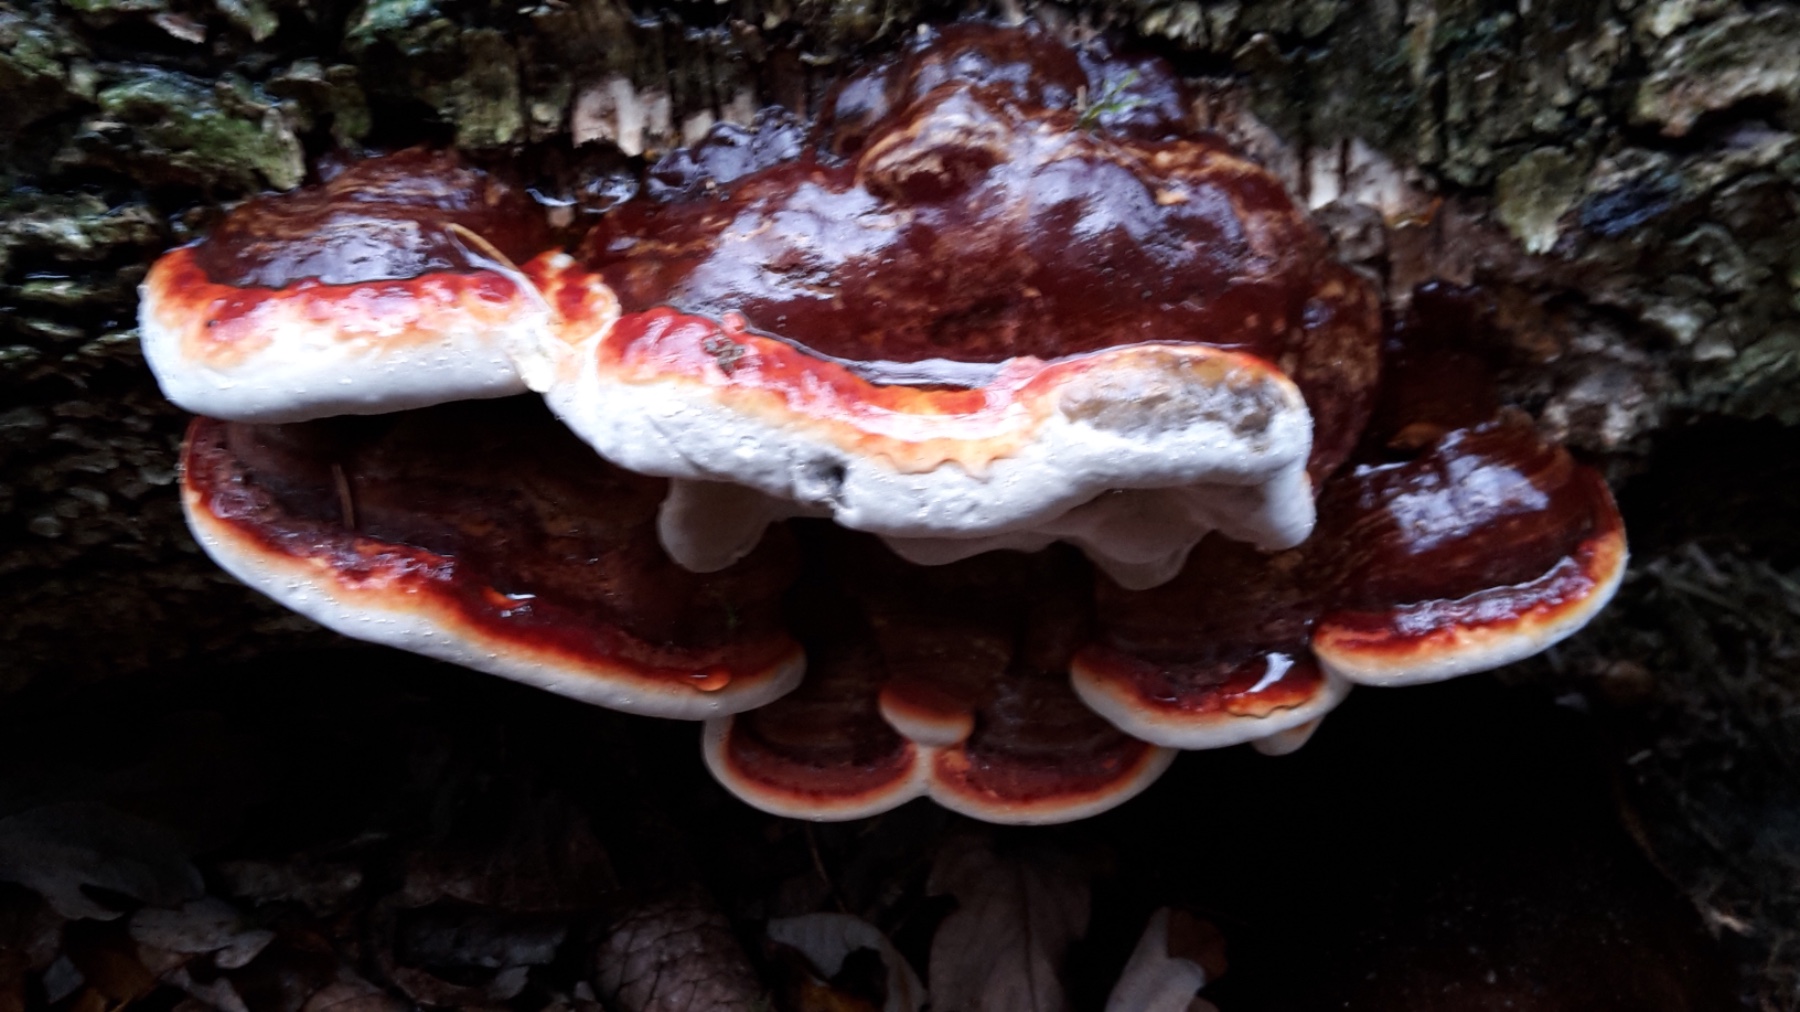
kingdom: Fungi
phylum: Basidiomycota
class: Agaricomycetes
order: Polyporales
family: Fomitopsidaceae
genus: Fomitopsis
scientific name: Fomitopsis pinicola
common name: randbæltet hovporesvamp
